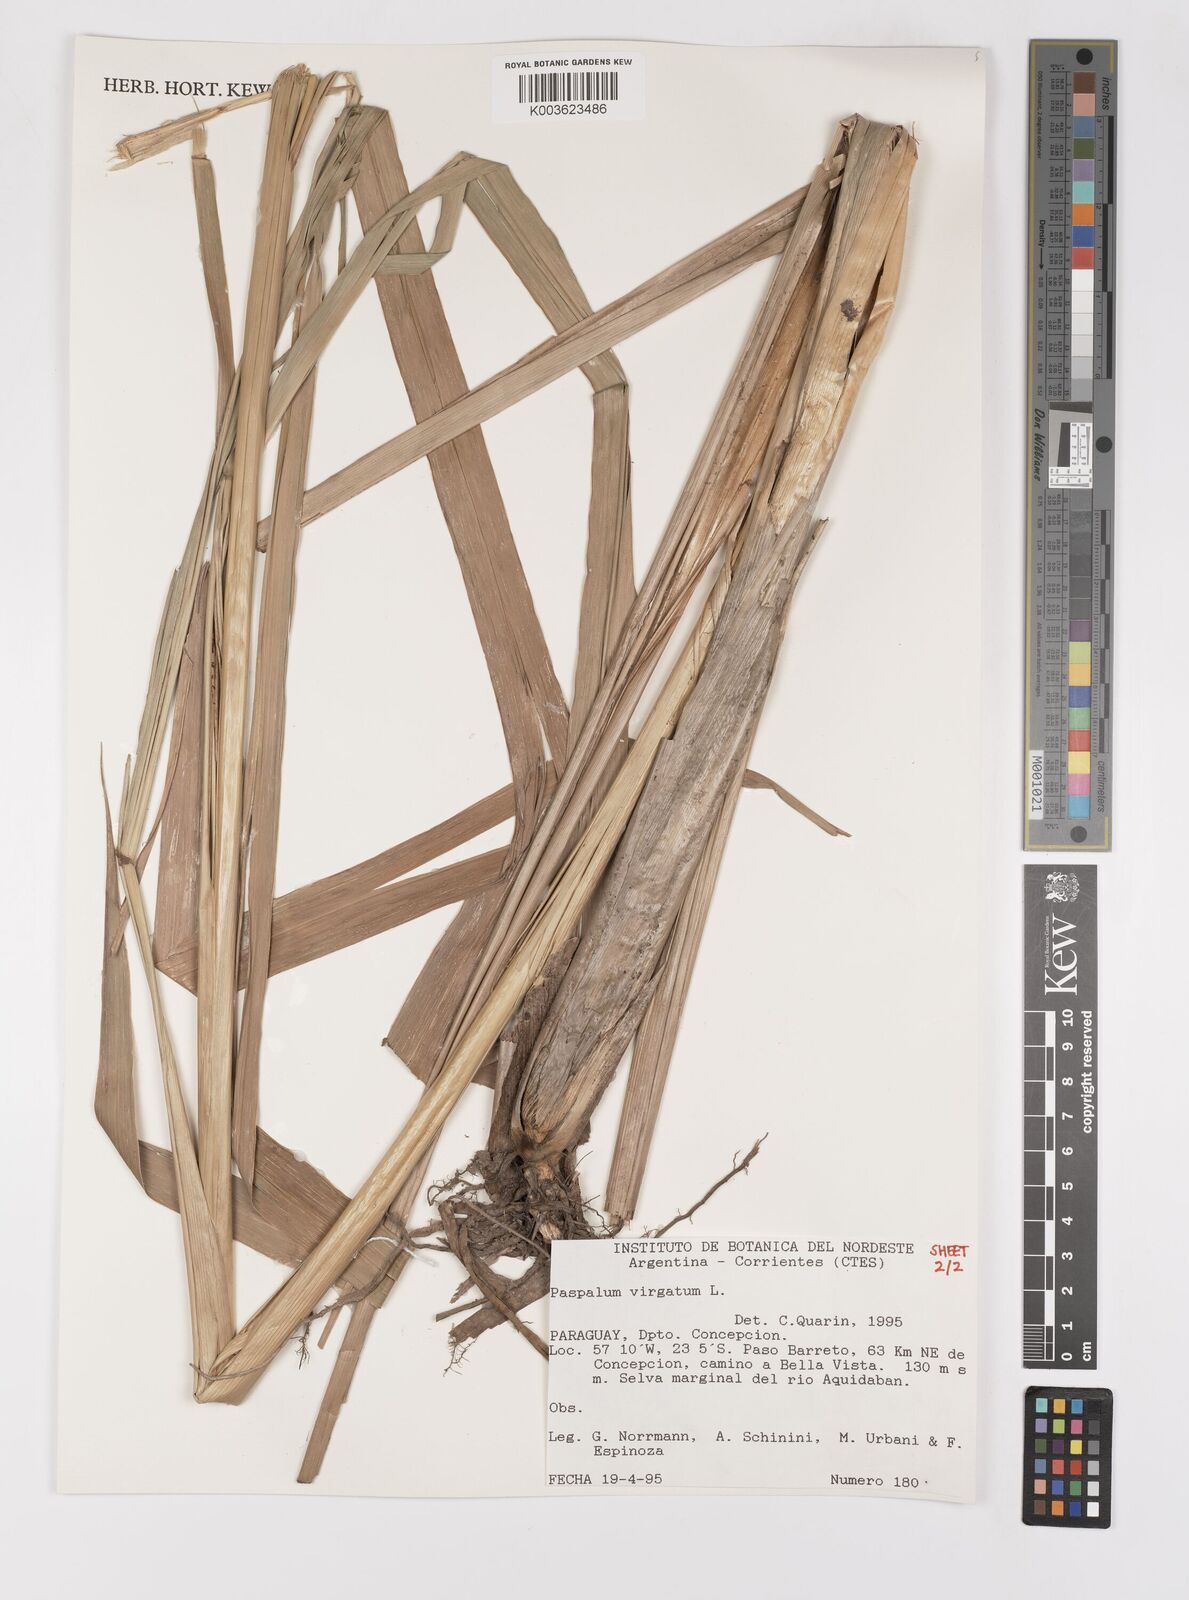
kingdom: Plantae
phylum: Tracheophyta
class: Liliopsida
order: Poales
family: Poaceae
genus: Paspalum
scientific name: Paspalum virgatum
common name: Talquezal
